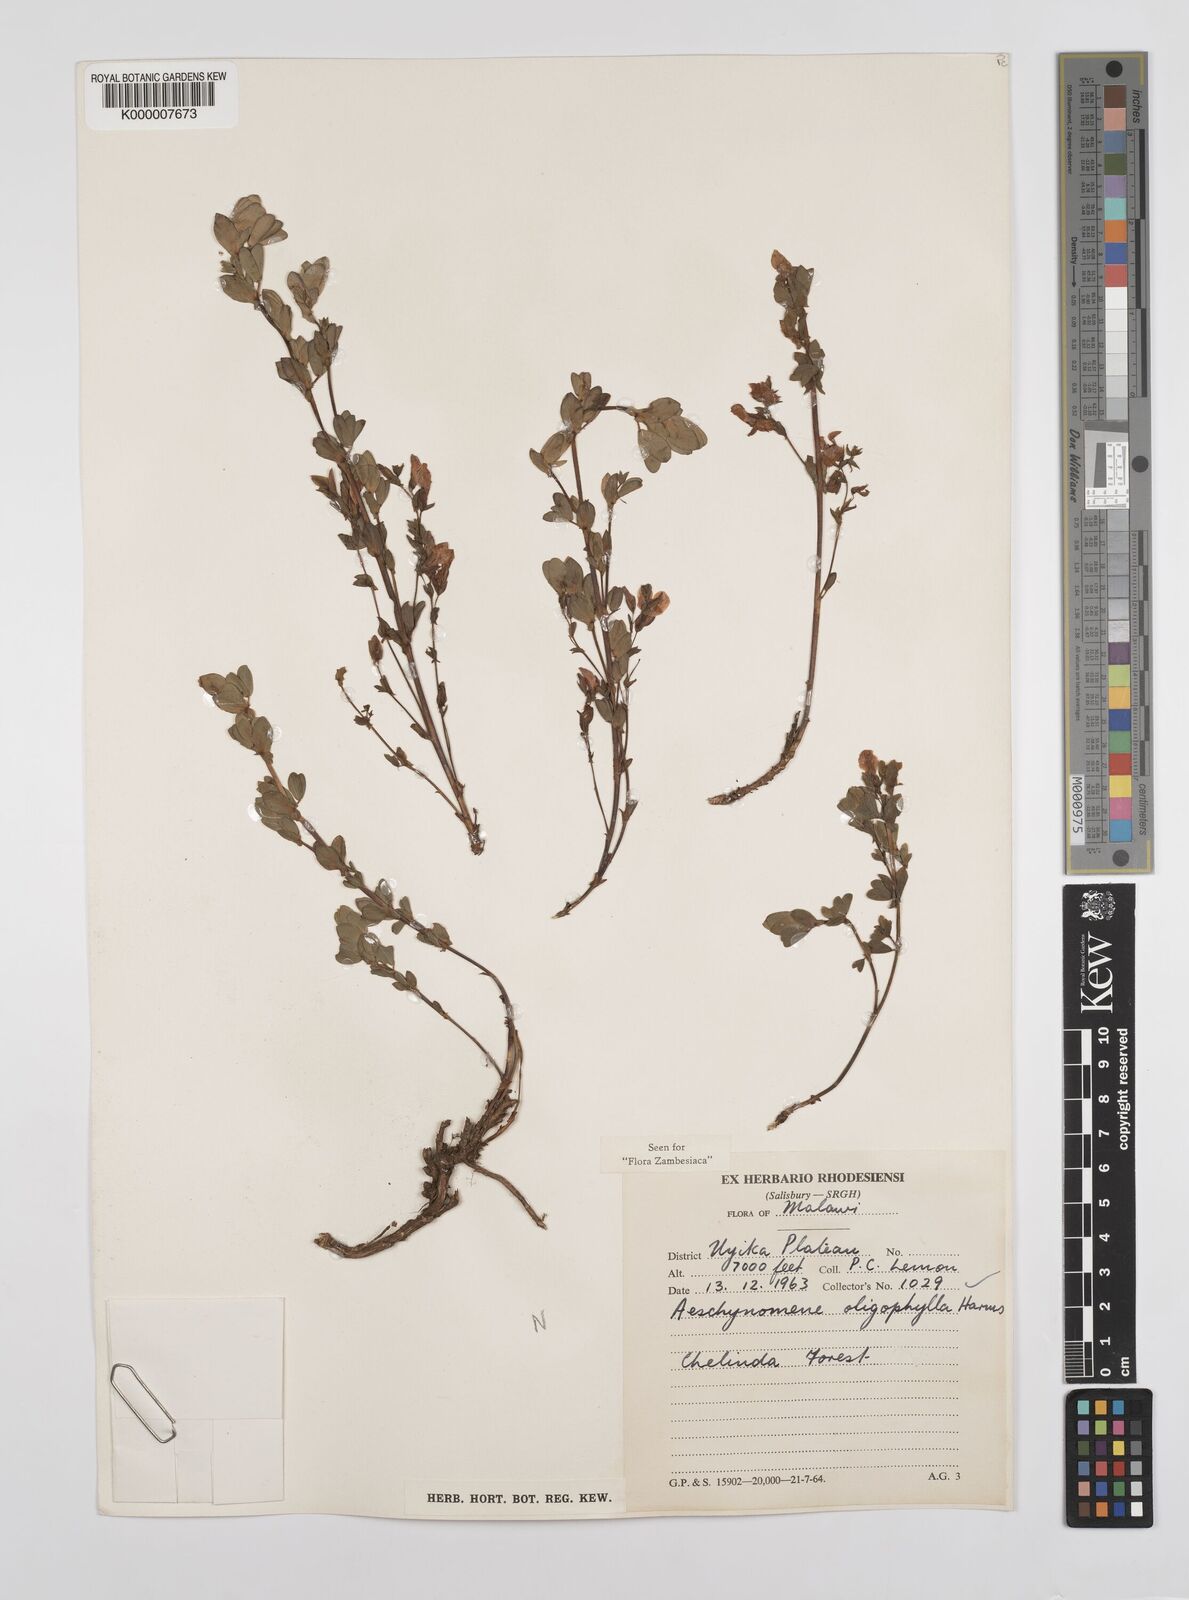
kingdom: Plantae
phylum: Tracheophyta
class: Magnoliopsida
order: Fabales
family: Fabaceae
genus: Aeschynomene
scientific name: Aeschynomene oligophylla
